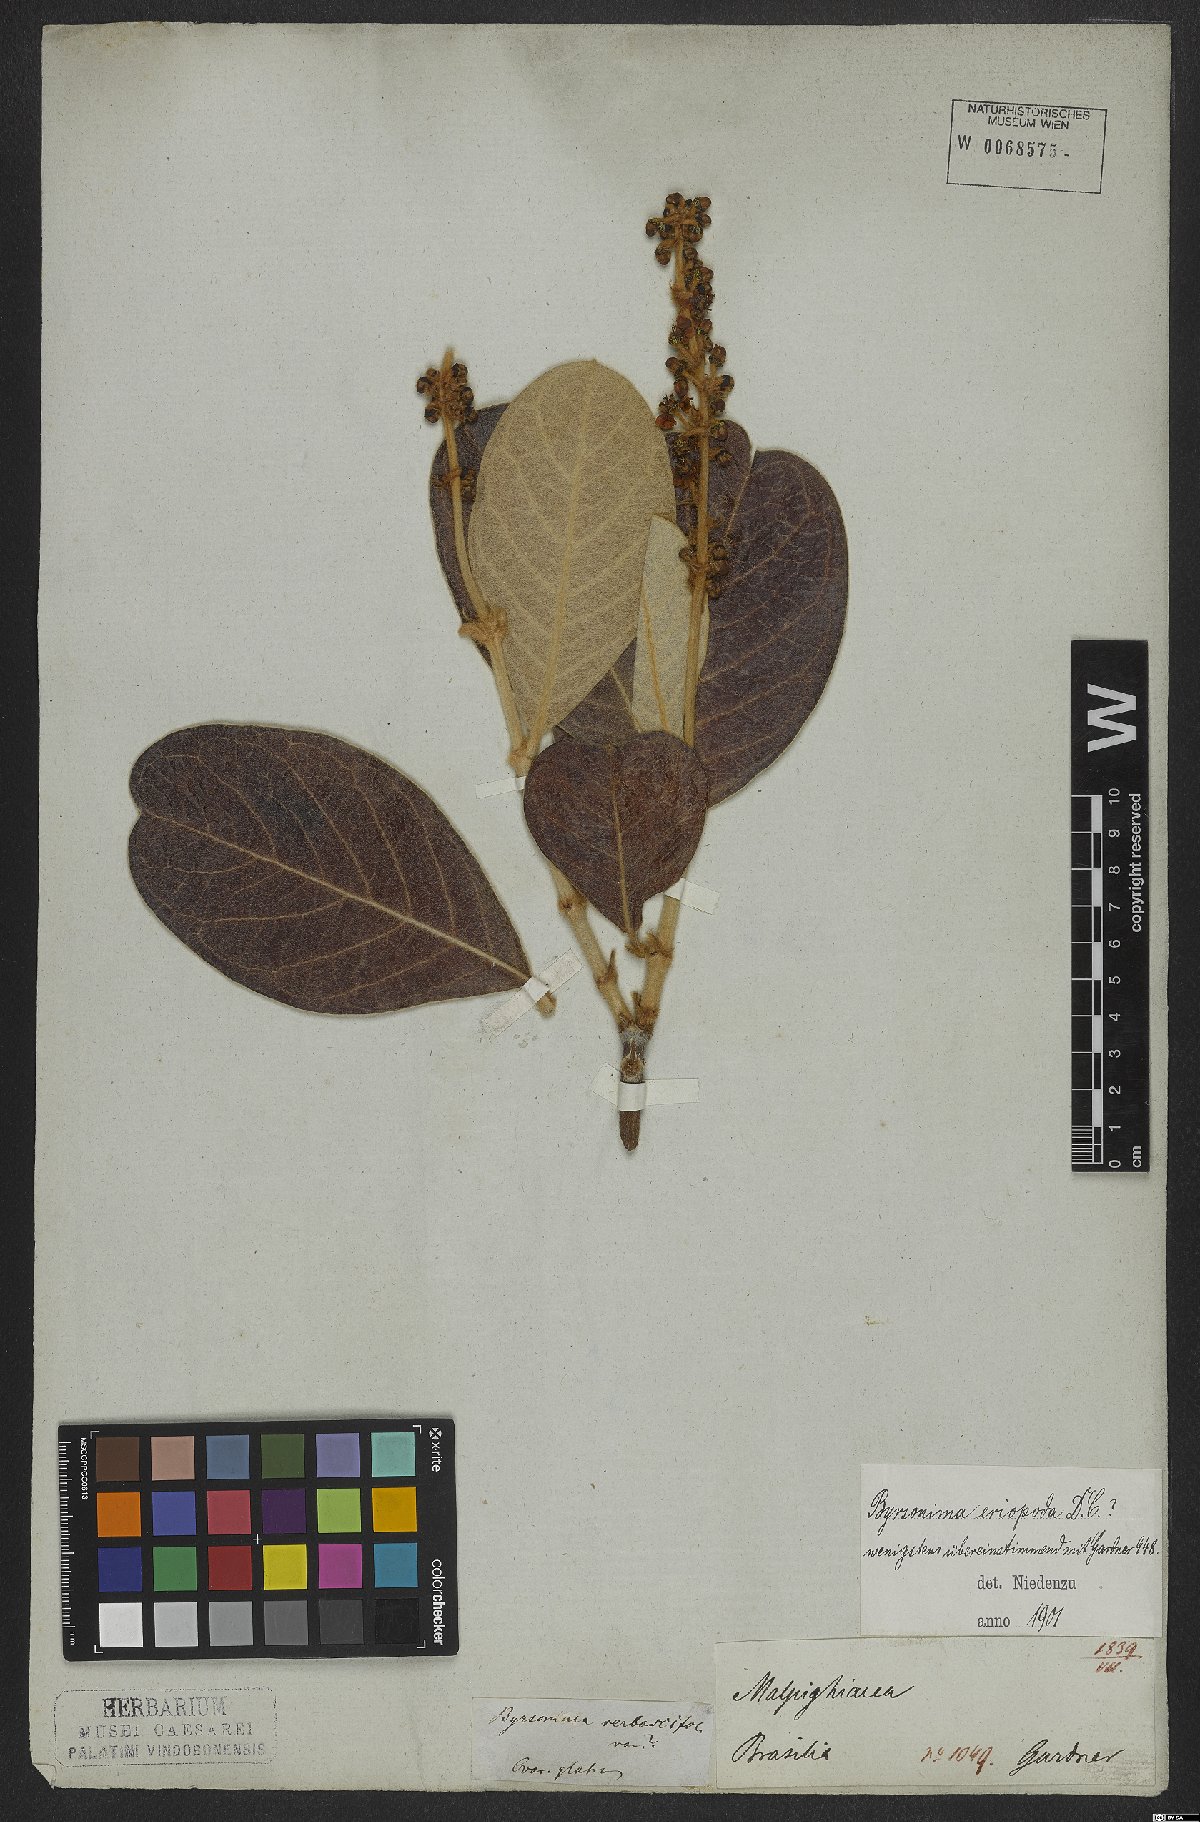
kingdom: Plantae
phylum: Tracheophyta
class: Magnoliopsida
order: Malpighiales
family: Malpighiaceae
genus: Byrsonima
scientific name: Byrsonima eriopoda
